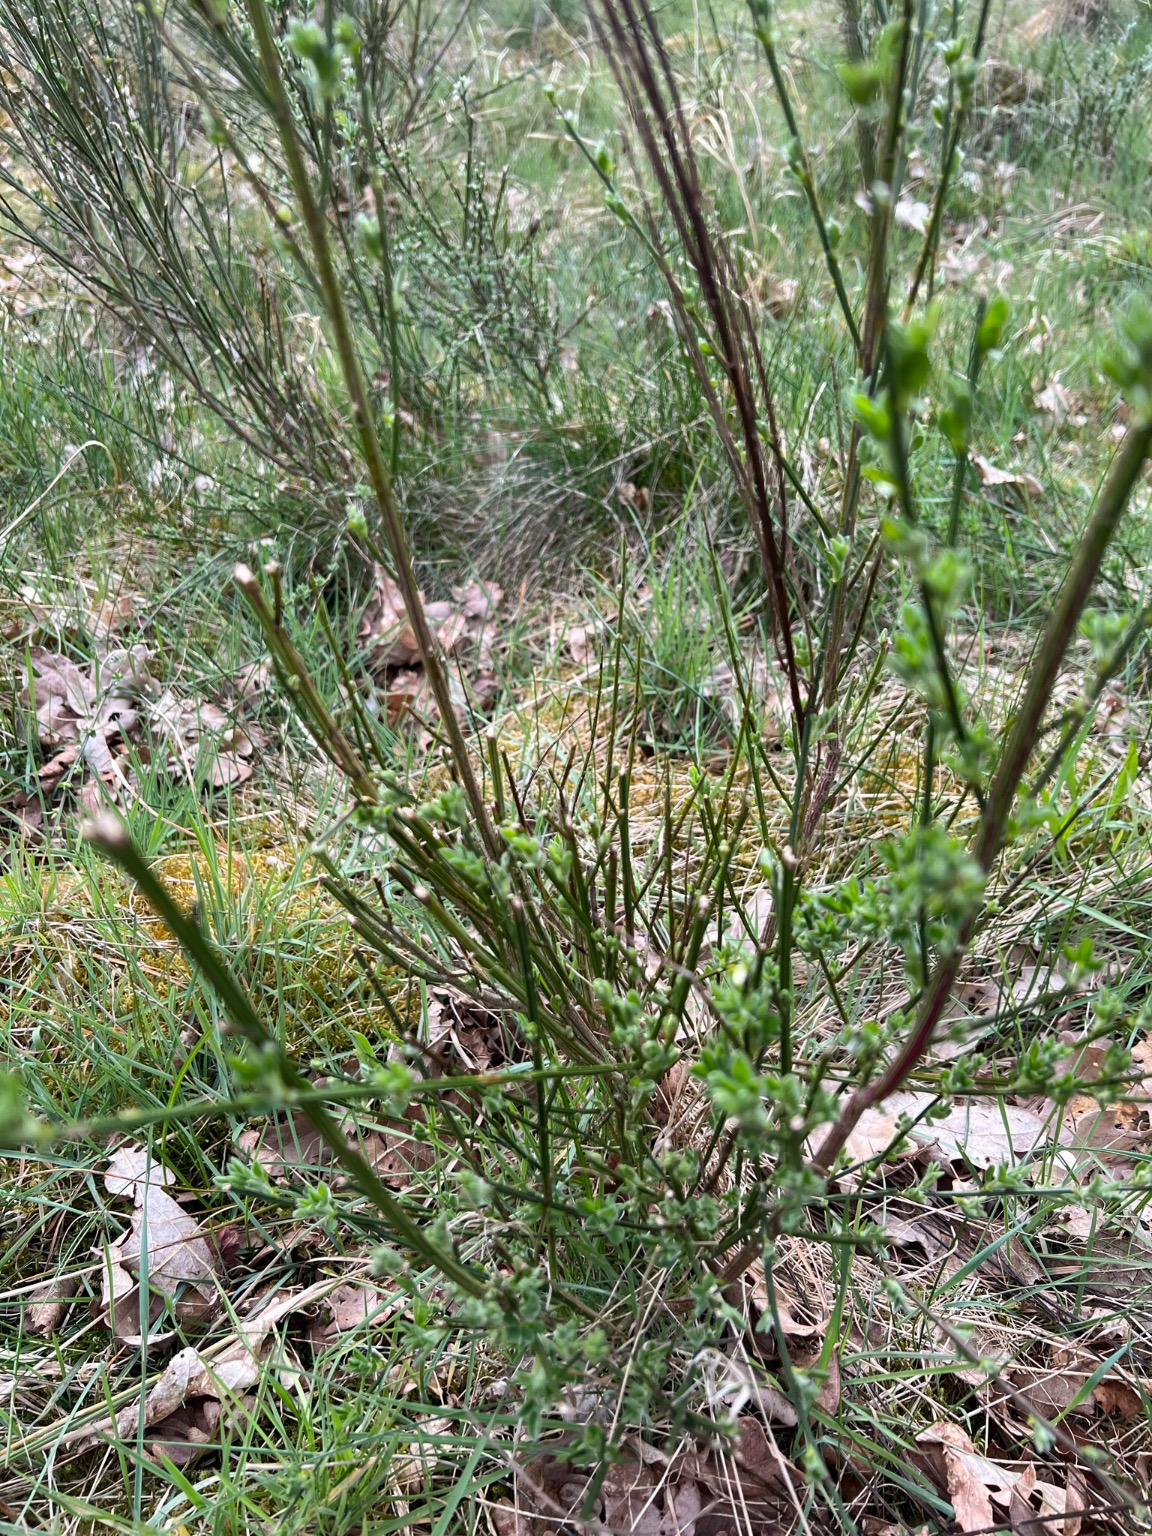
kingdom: Plantae
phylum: Tracheophyta
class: Magnoliopsida
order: Fabales
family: Fabaceae
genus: Cytisus
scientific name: Cytisus scoparius
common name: Almindelig gyvel
